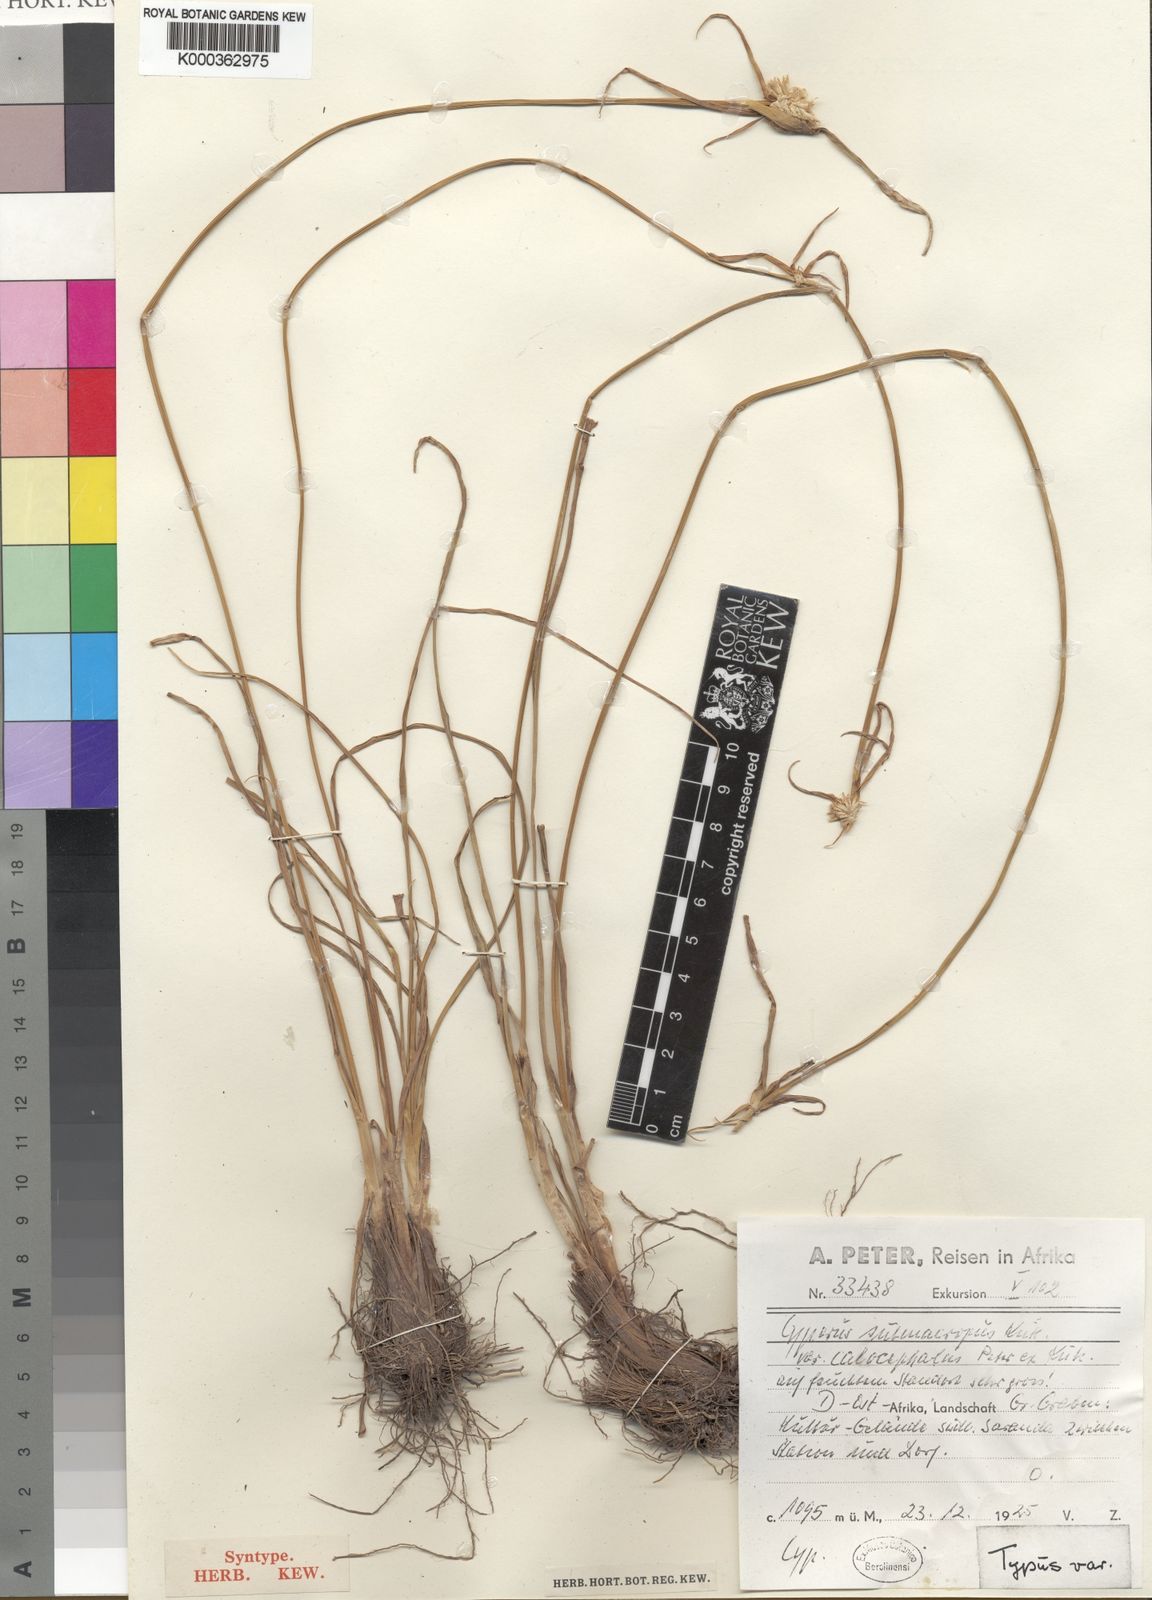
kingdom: Plantae
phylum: Tracheophyta
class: Liliopsida
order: Poales
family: Cyperaceae
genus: Cyperus
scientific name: Cyperus
